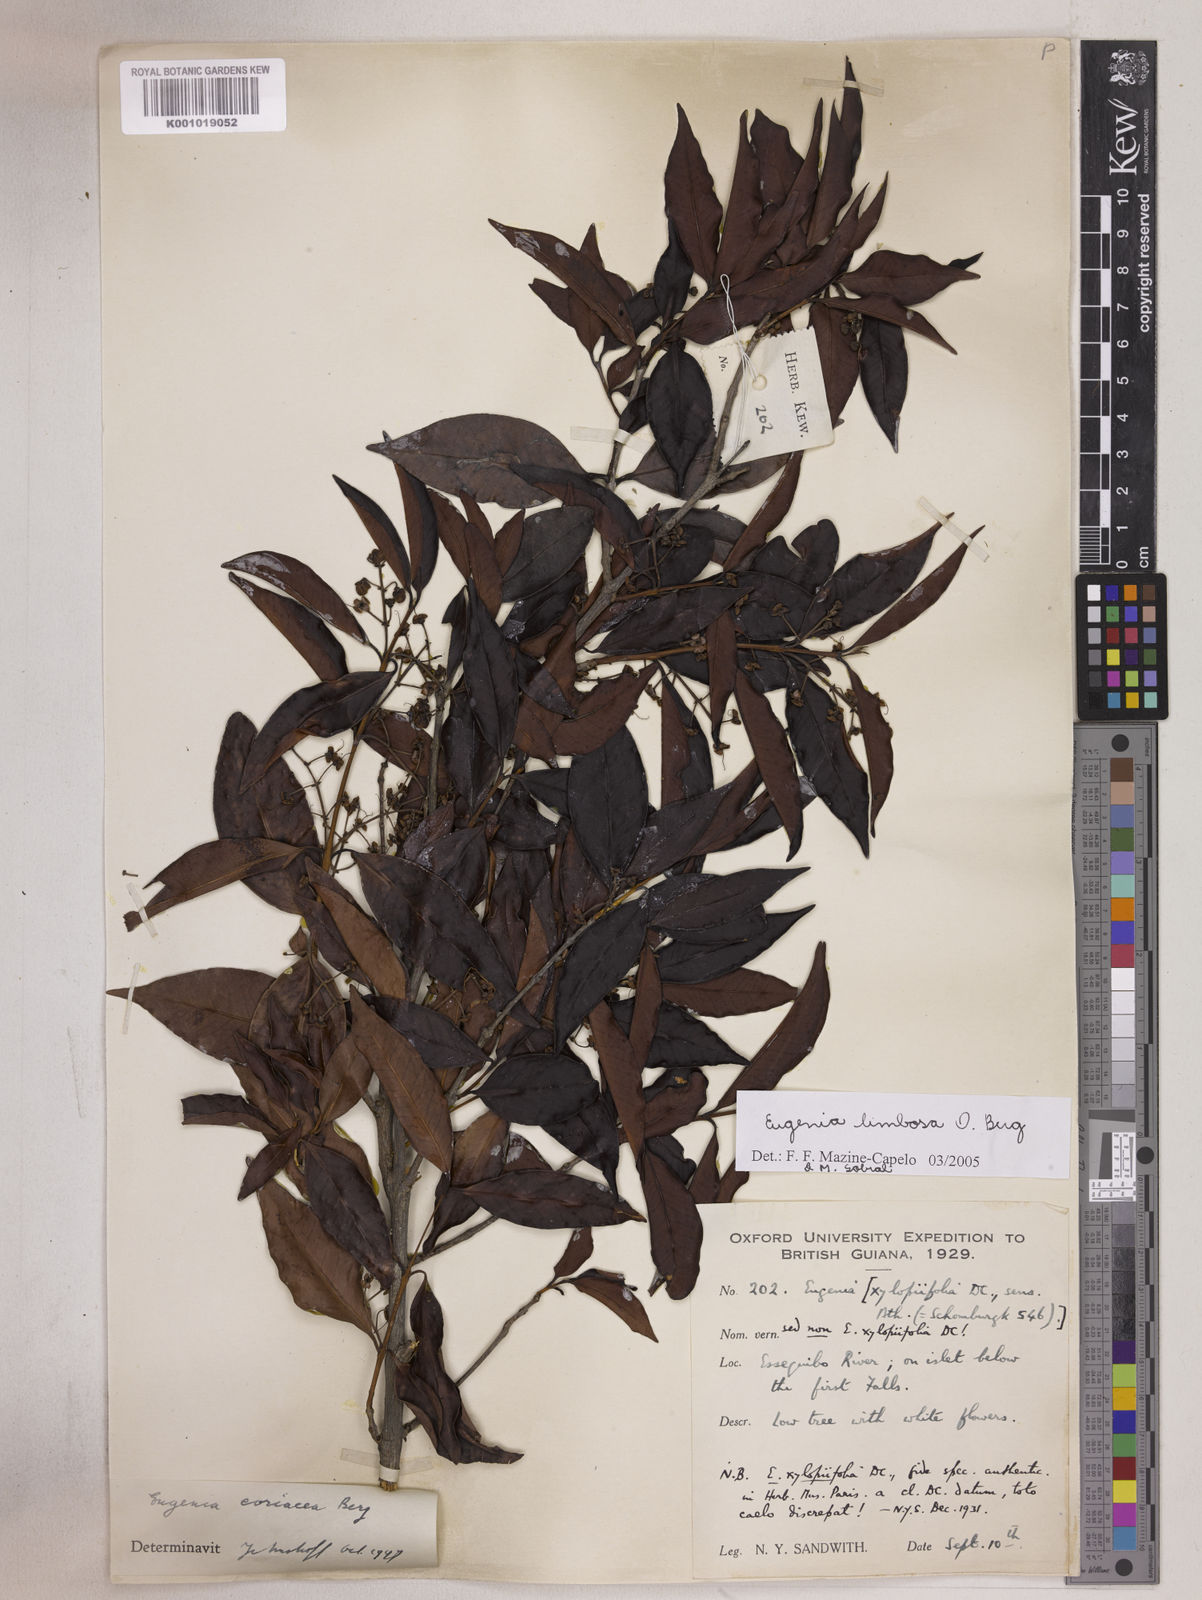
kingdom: Plantae
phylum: Tracheophyta
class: Magnoliopsida
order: Myrtales
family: Myrtaceae
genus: Eugenia
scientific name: Eugenia limbosa
